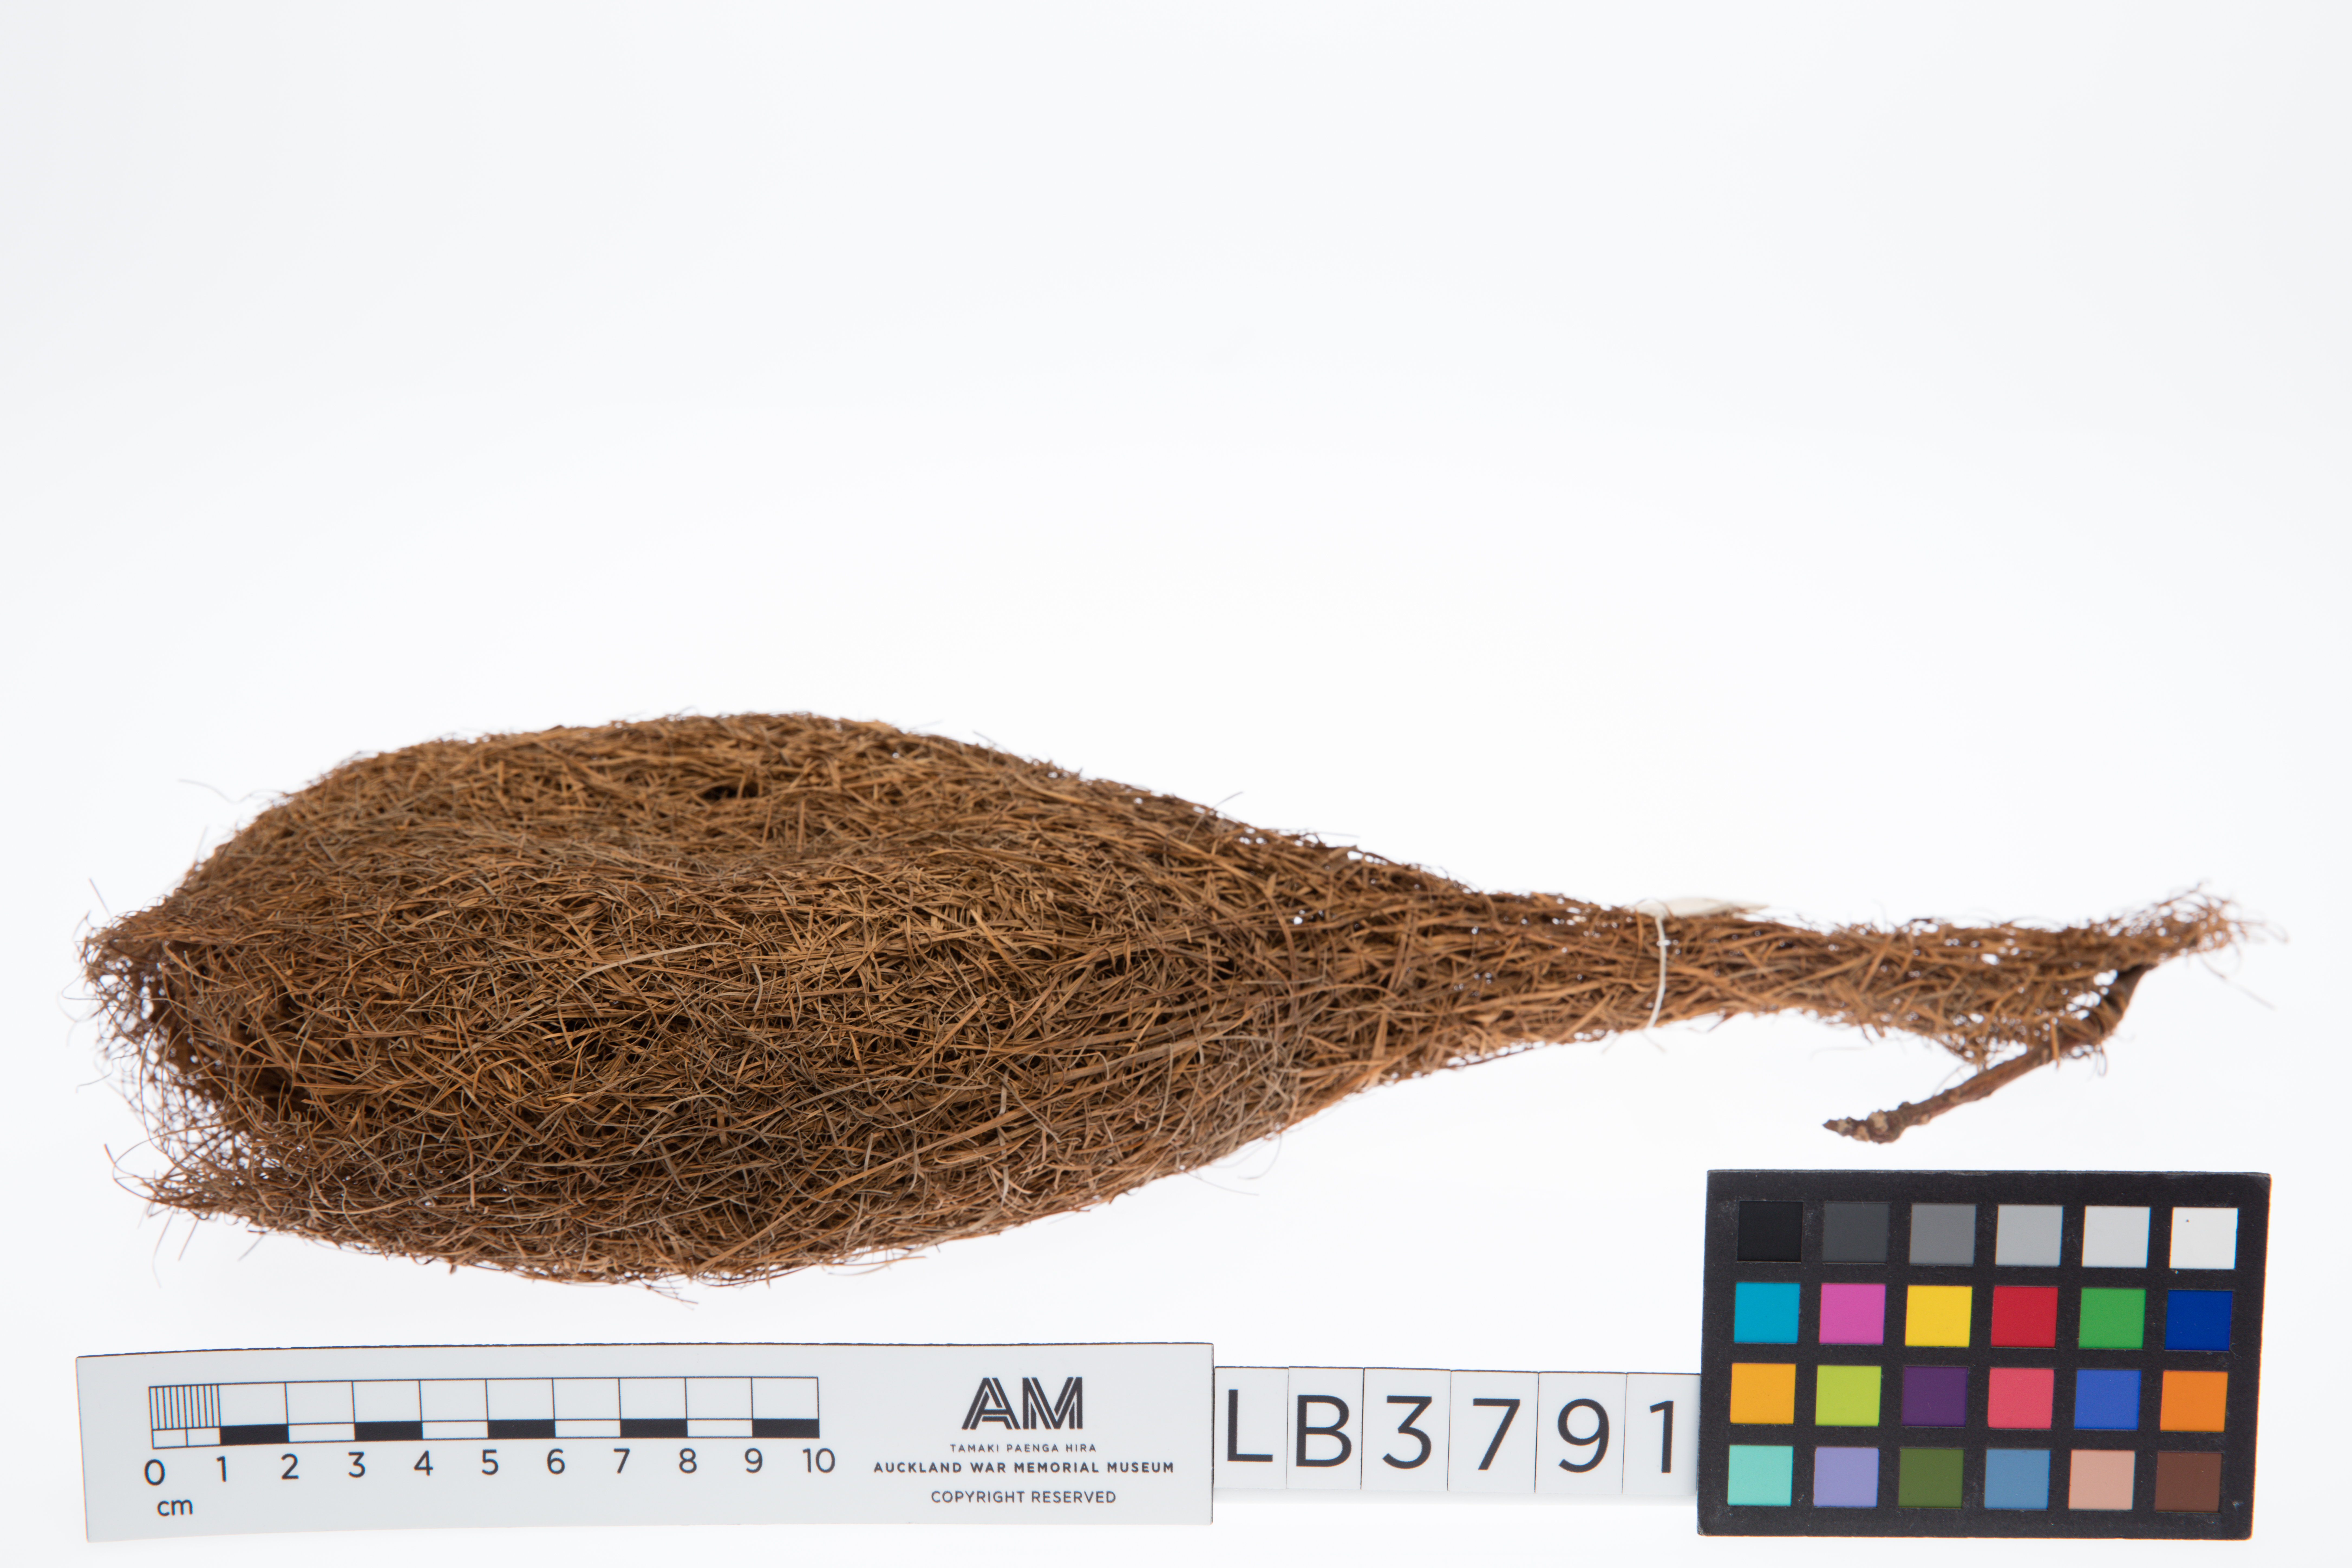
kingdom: Animalia
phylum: Chordata
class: Aves
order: Passeriformes
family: Ploceidae
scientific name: Ploceidae
